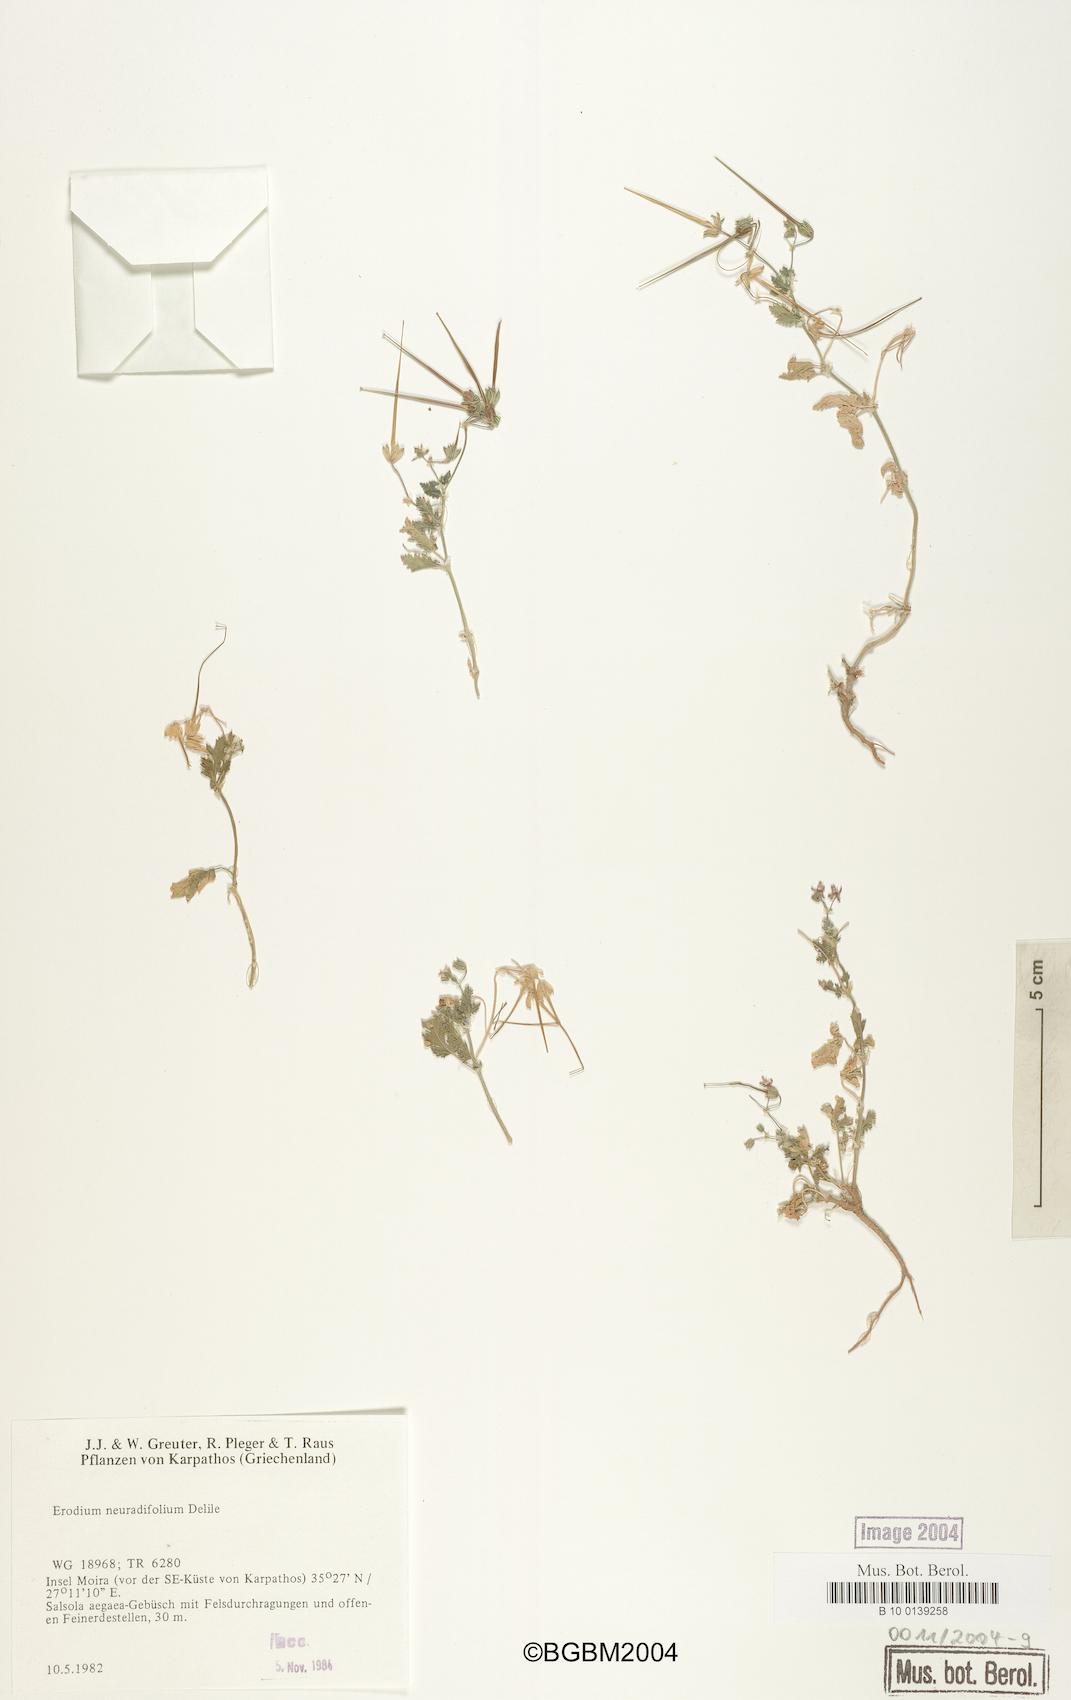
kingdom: Plantae
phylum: Tracheophyta
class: Magnoliopsida
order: Geraniales
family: Geraniaceae
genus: Erodium
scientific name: Erodium malacoides
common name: Soft stork's-bill
